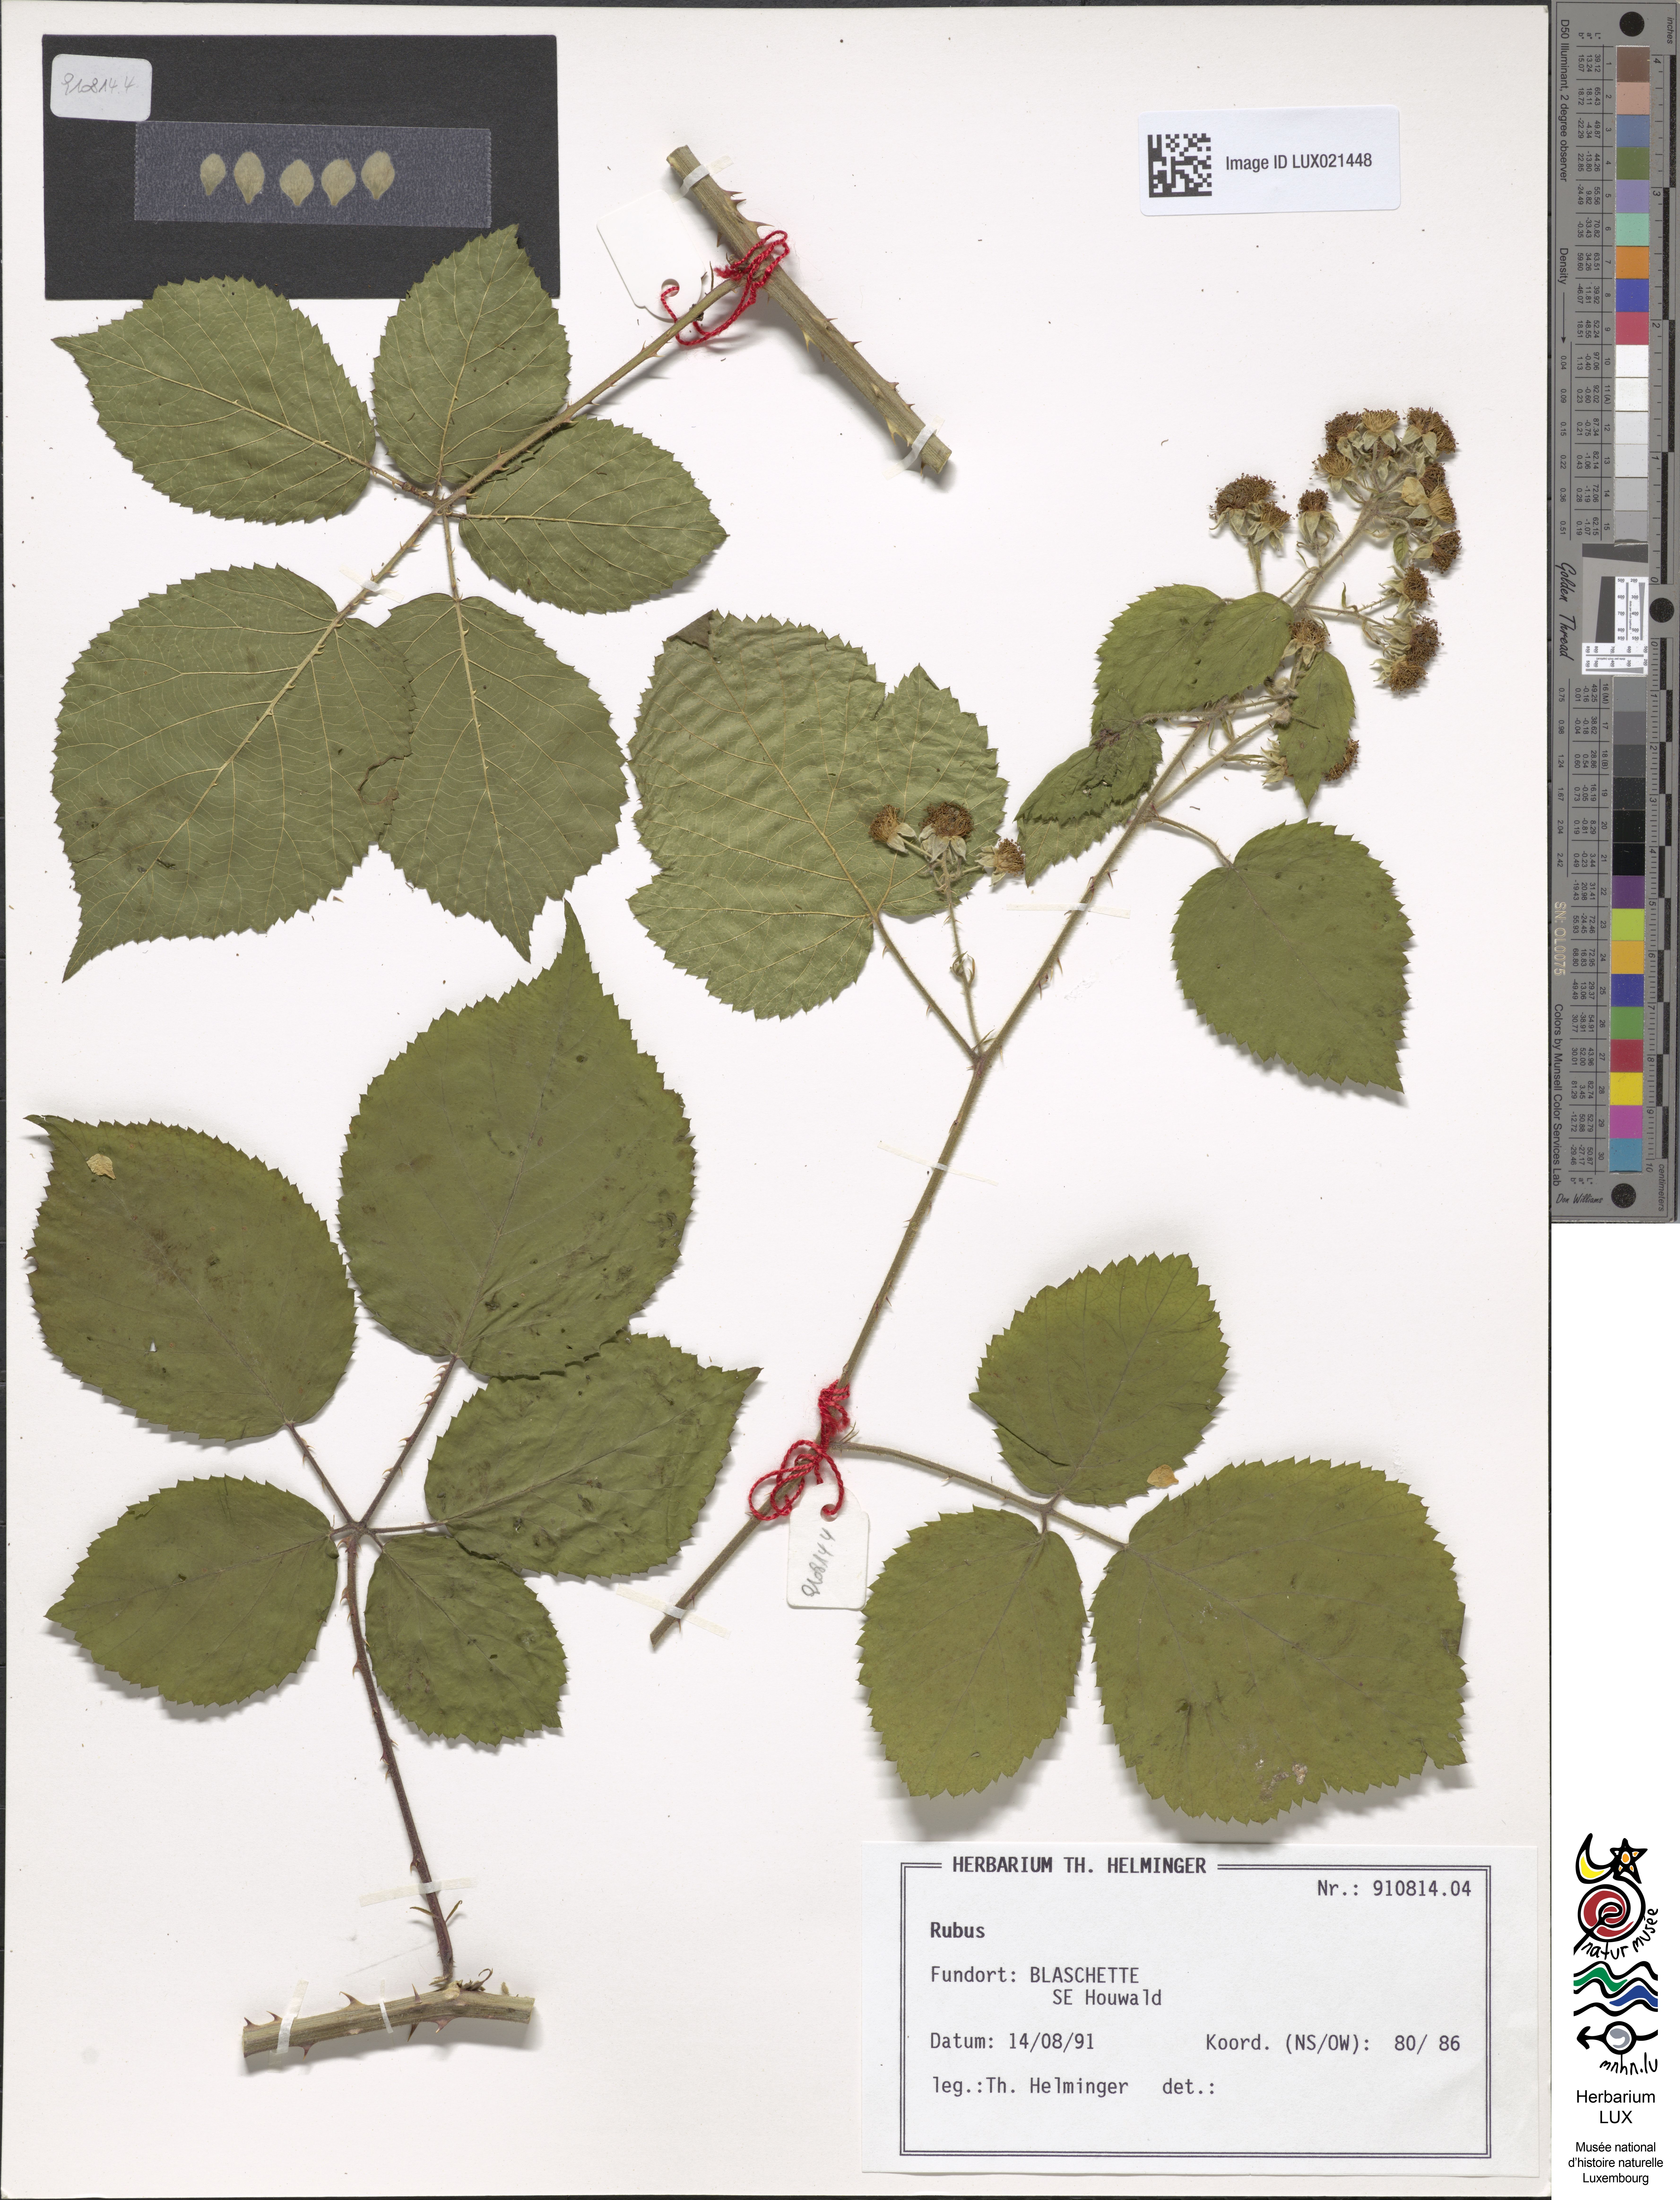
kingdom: Plantae
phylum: Tracheophyta
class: Magnoliopsida
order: Rosales
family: Rosaceae
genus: Rubus
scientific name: Rubus
